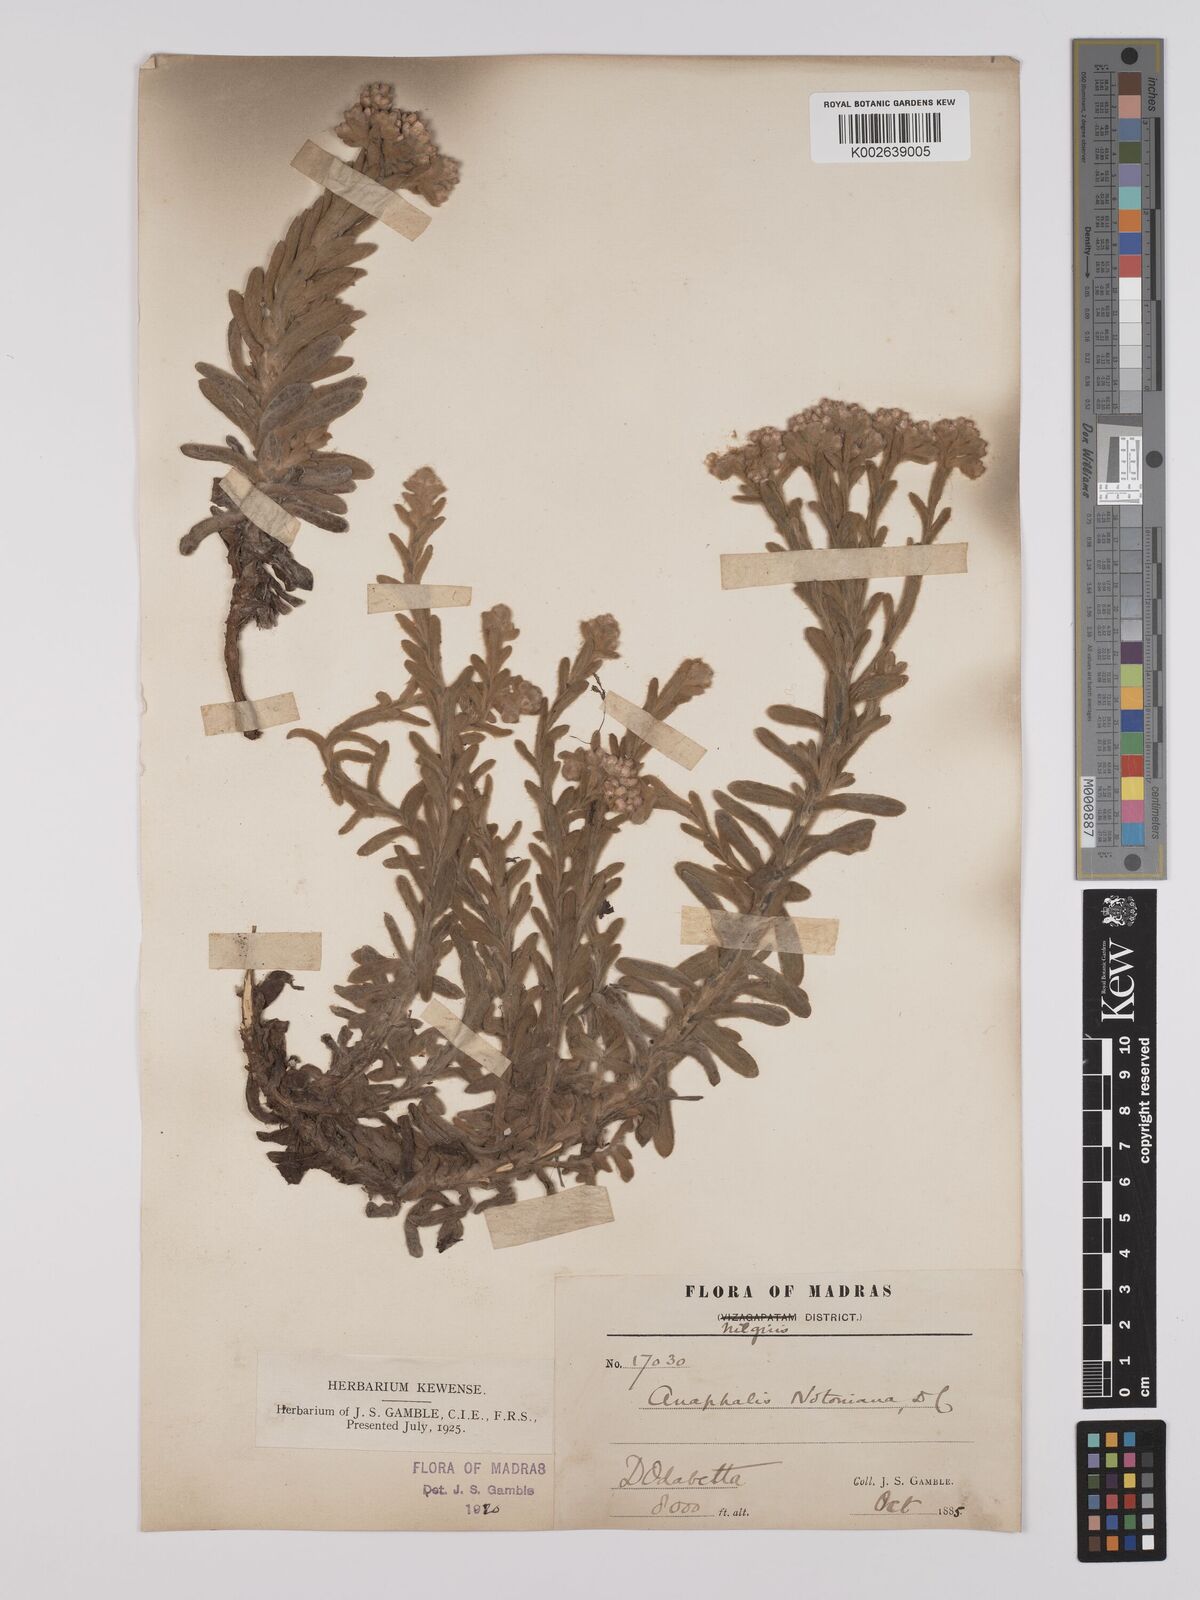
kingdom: Plantae
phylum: Tracheophyta
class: Magnoliopsida
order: Asterales
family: Asteraceae
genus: Anaphalis
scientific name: Anaphalis notoniana
